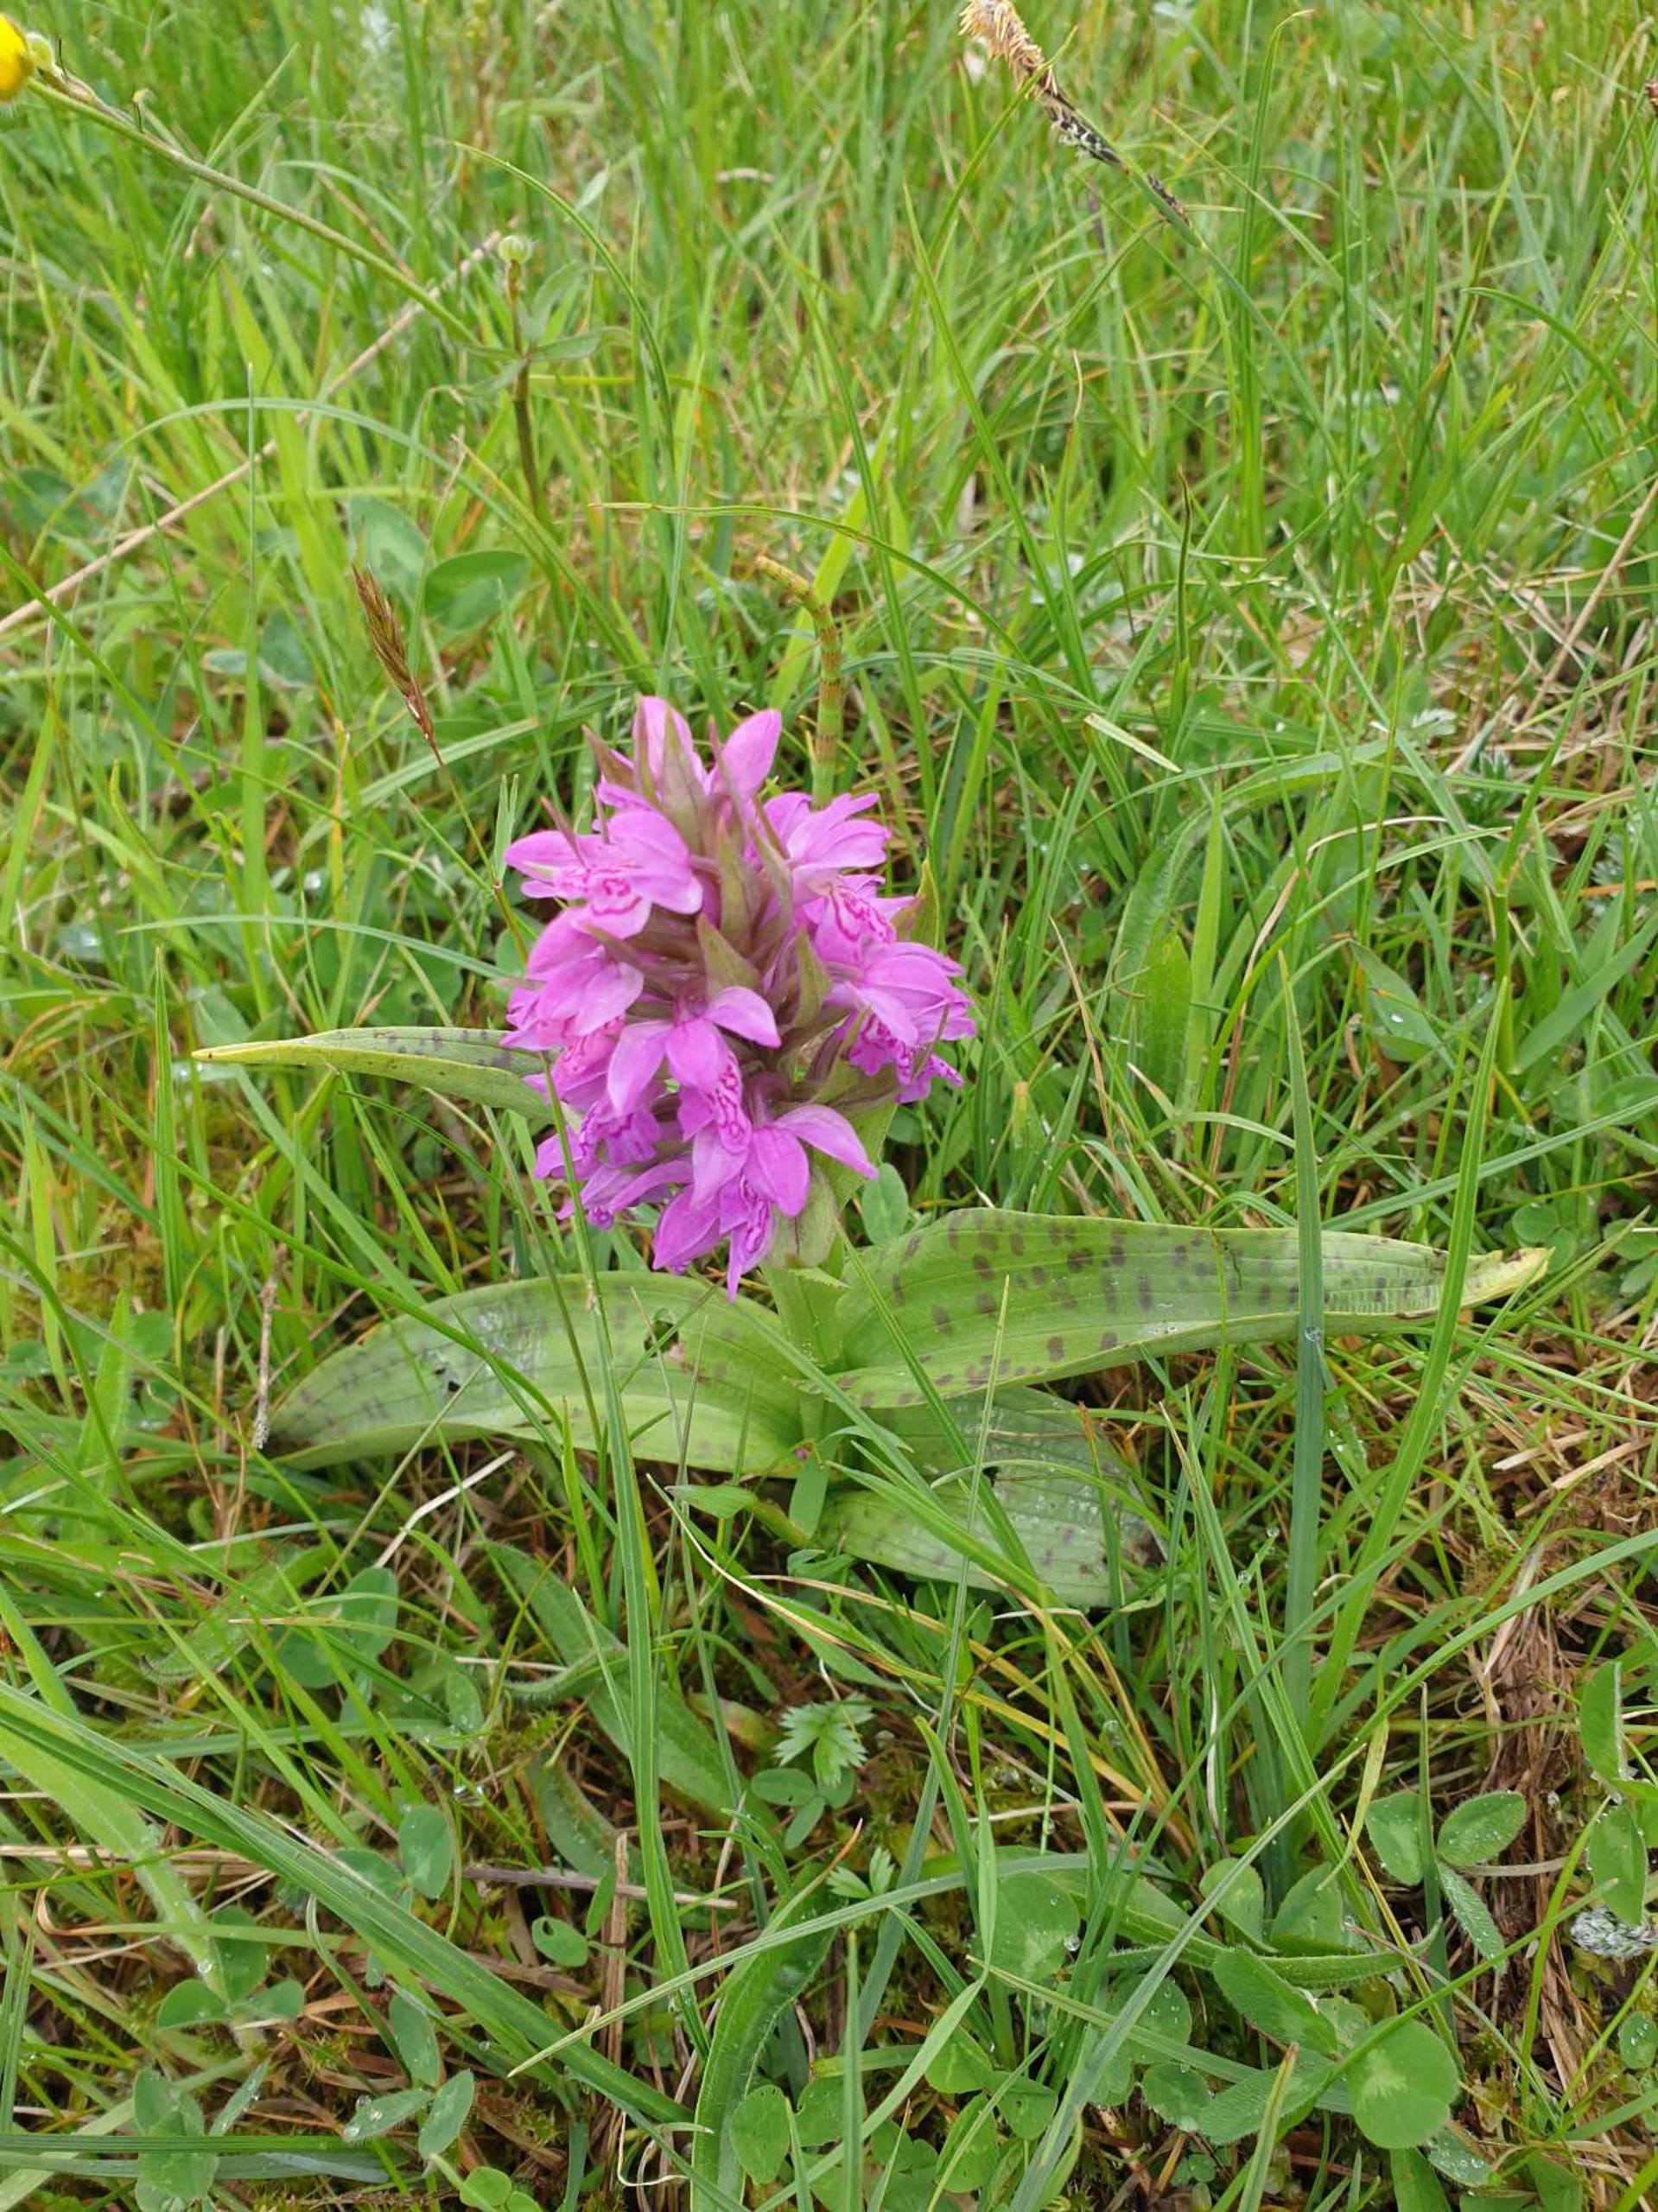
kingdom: Plantae
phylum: Tracheophyta
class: Liliopsida
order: Asparagales
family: Orchidaceae
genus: Dactylorhiza
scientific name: Dactylorhiza majalis
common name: Maj-gøgeurt
